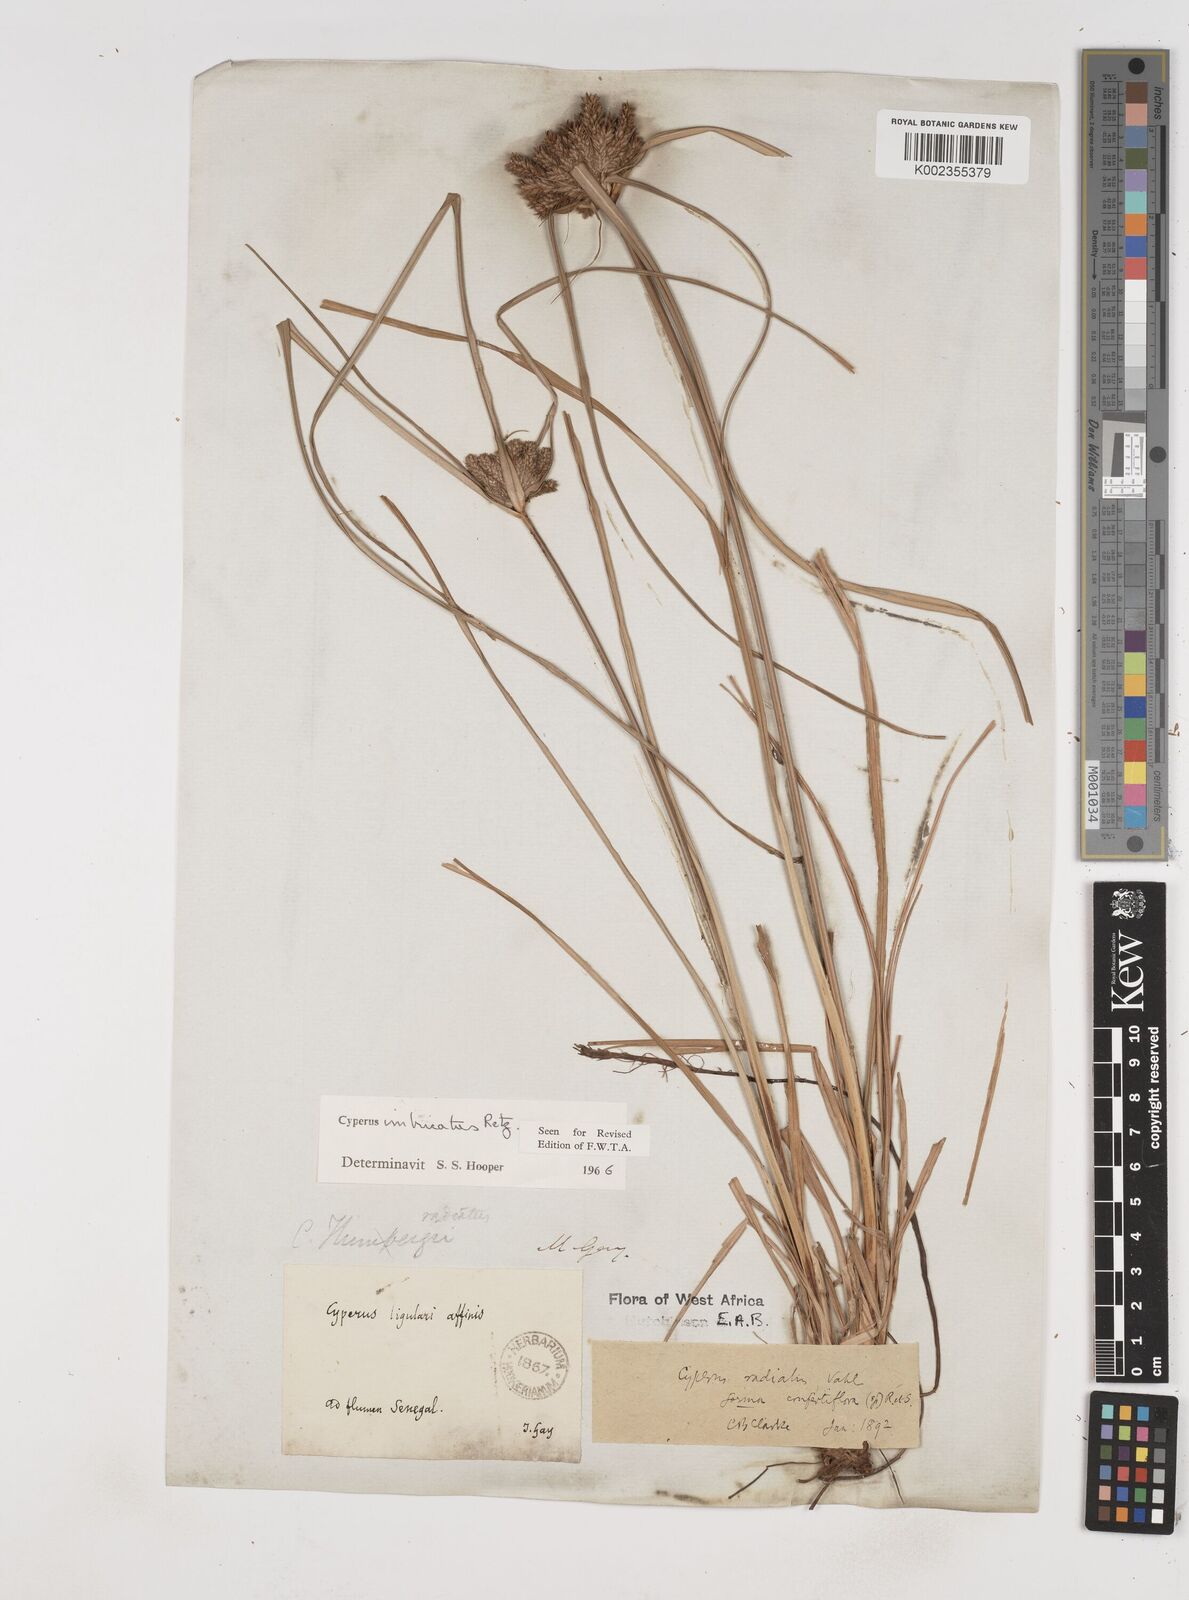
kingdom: Plantae
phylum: Tracheophyta
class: Liliopsida
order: Poales
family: Cyperaceae
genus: Cyperus
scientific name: Cyperus imbricatus
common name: Shingle flatsedge
